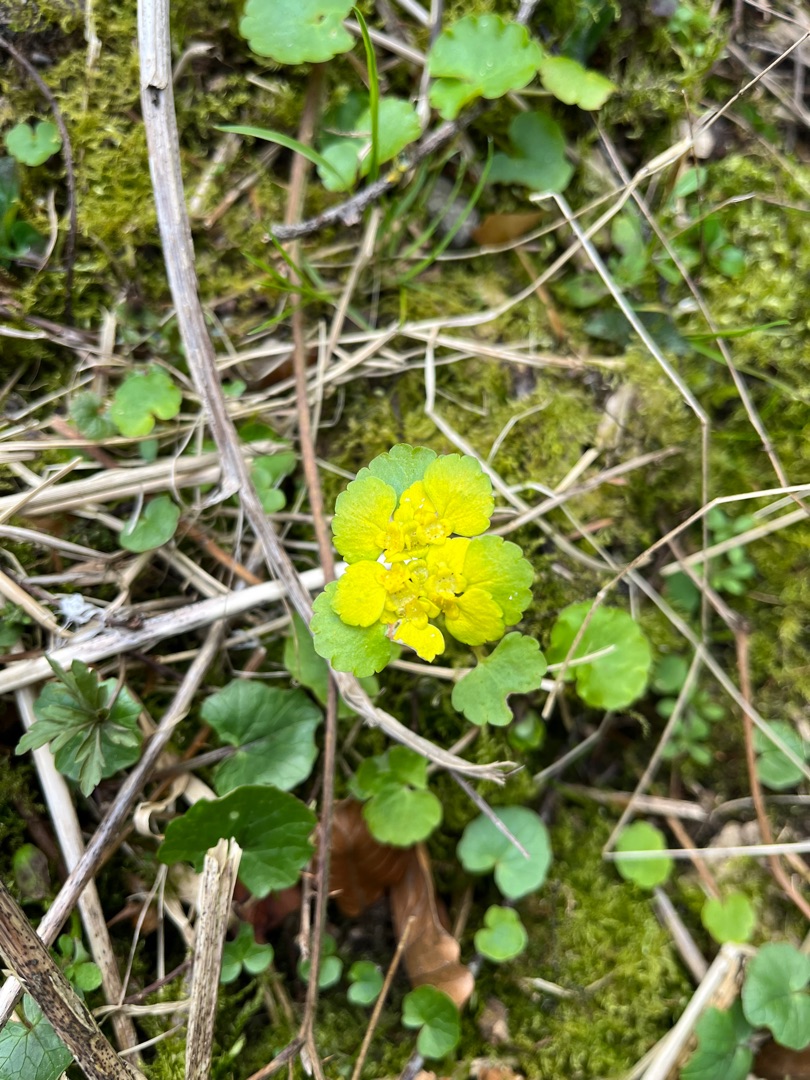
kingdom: Plantae
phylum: Tracheophyta
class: Magnoliopsida
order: Saxifragales
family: Saxifragaceae
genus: Chrysosplenium
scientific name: Chrysosplenium alternifolium
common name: Almindelig milturt
